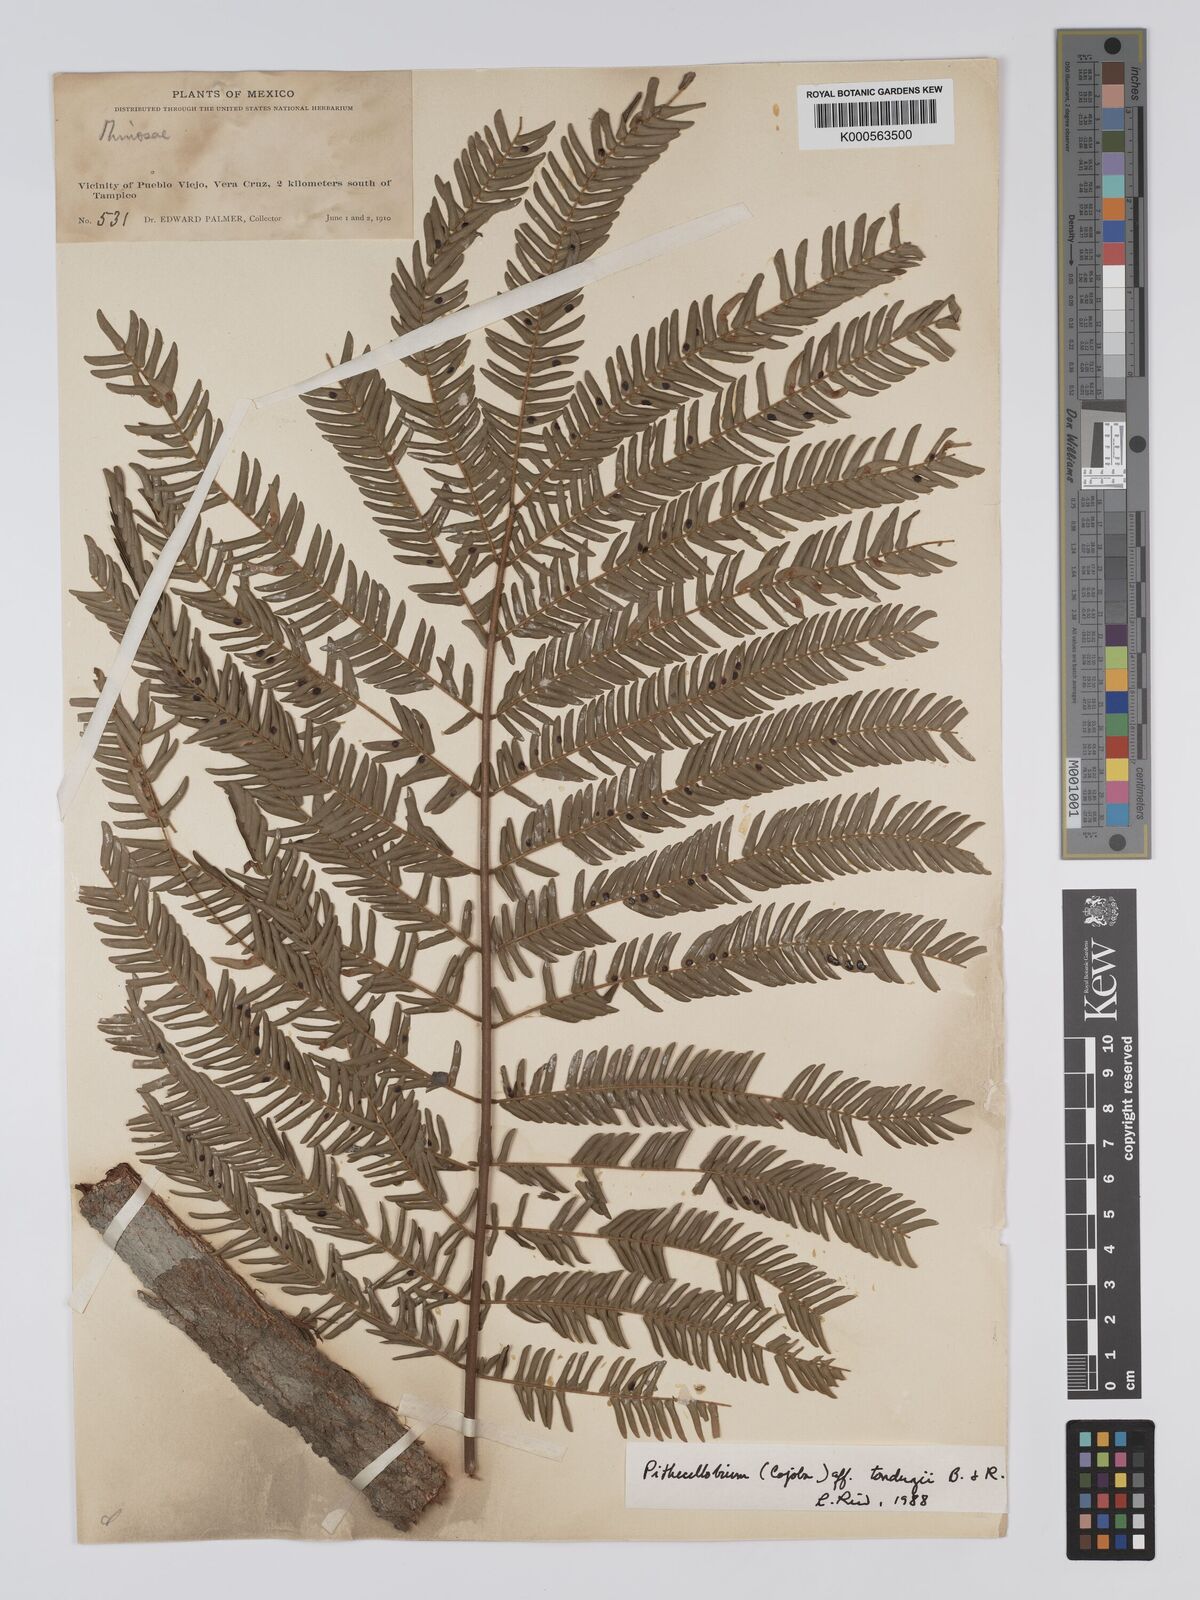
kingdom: Plantae
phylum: Tracheophyta
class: Magnoliopsida
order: Fabales
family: Fabaceae
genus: Cojoba
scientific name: Cojoba arborea
